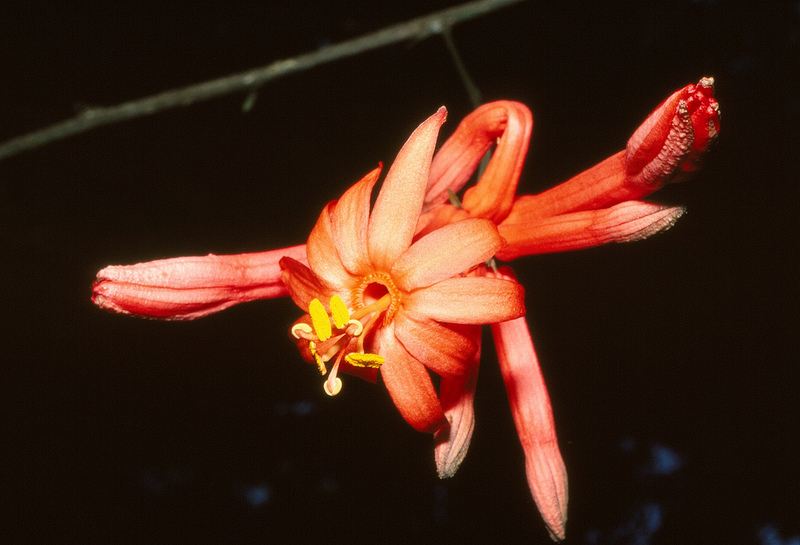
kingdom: Plantae
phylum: Tracheophyta
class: Magnoliopsida
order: Malpighiales
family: Passifloraceae
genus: Passiflora
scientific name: Passiflora spinosa
